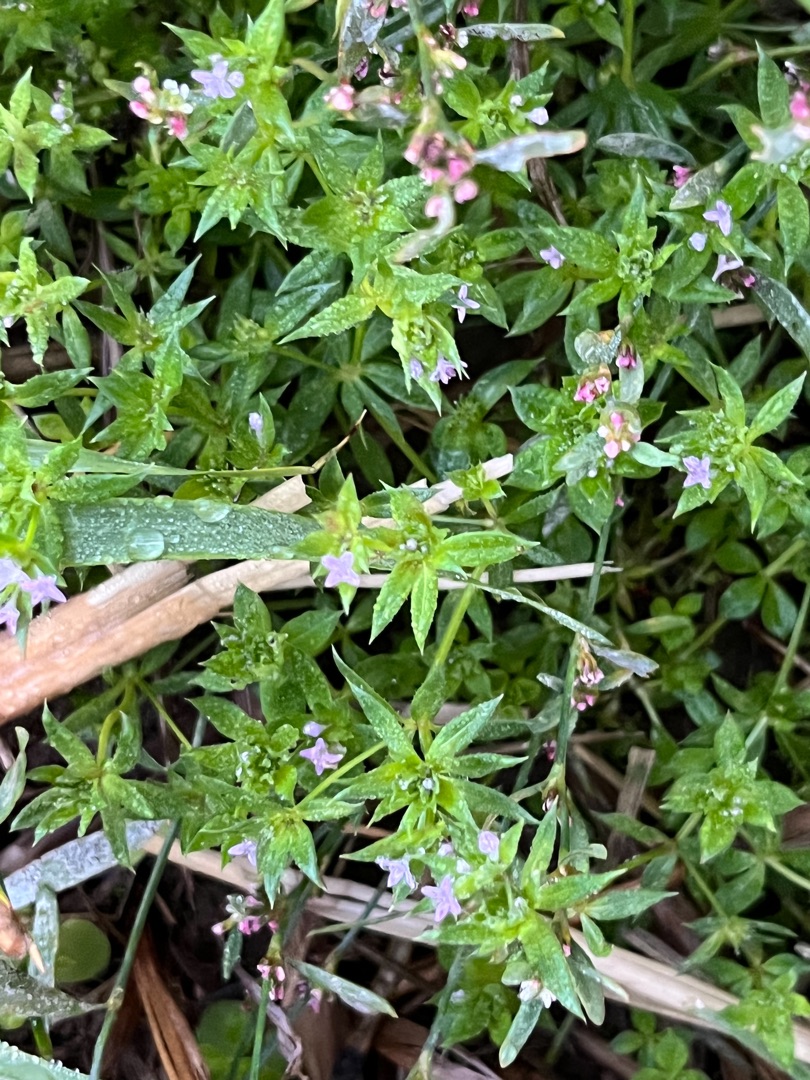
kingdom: Plantae
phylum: Tracheophyta
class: Magnoliopsida
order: Gentianales
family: Rubiaceae
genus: Sherardia
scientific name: Sherardia arvensis
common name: Blåstjerne
